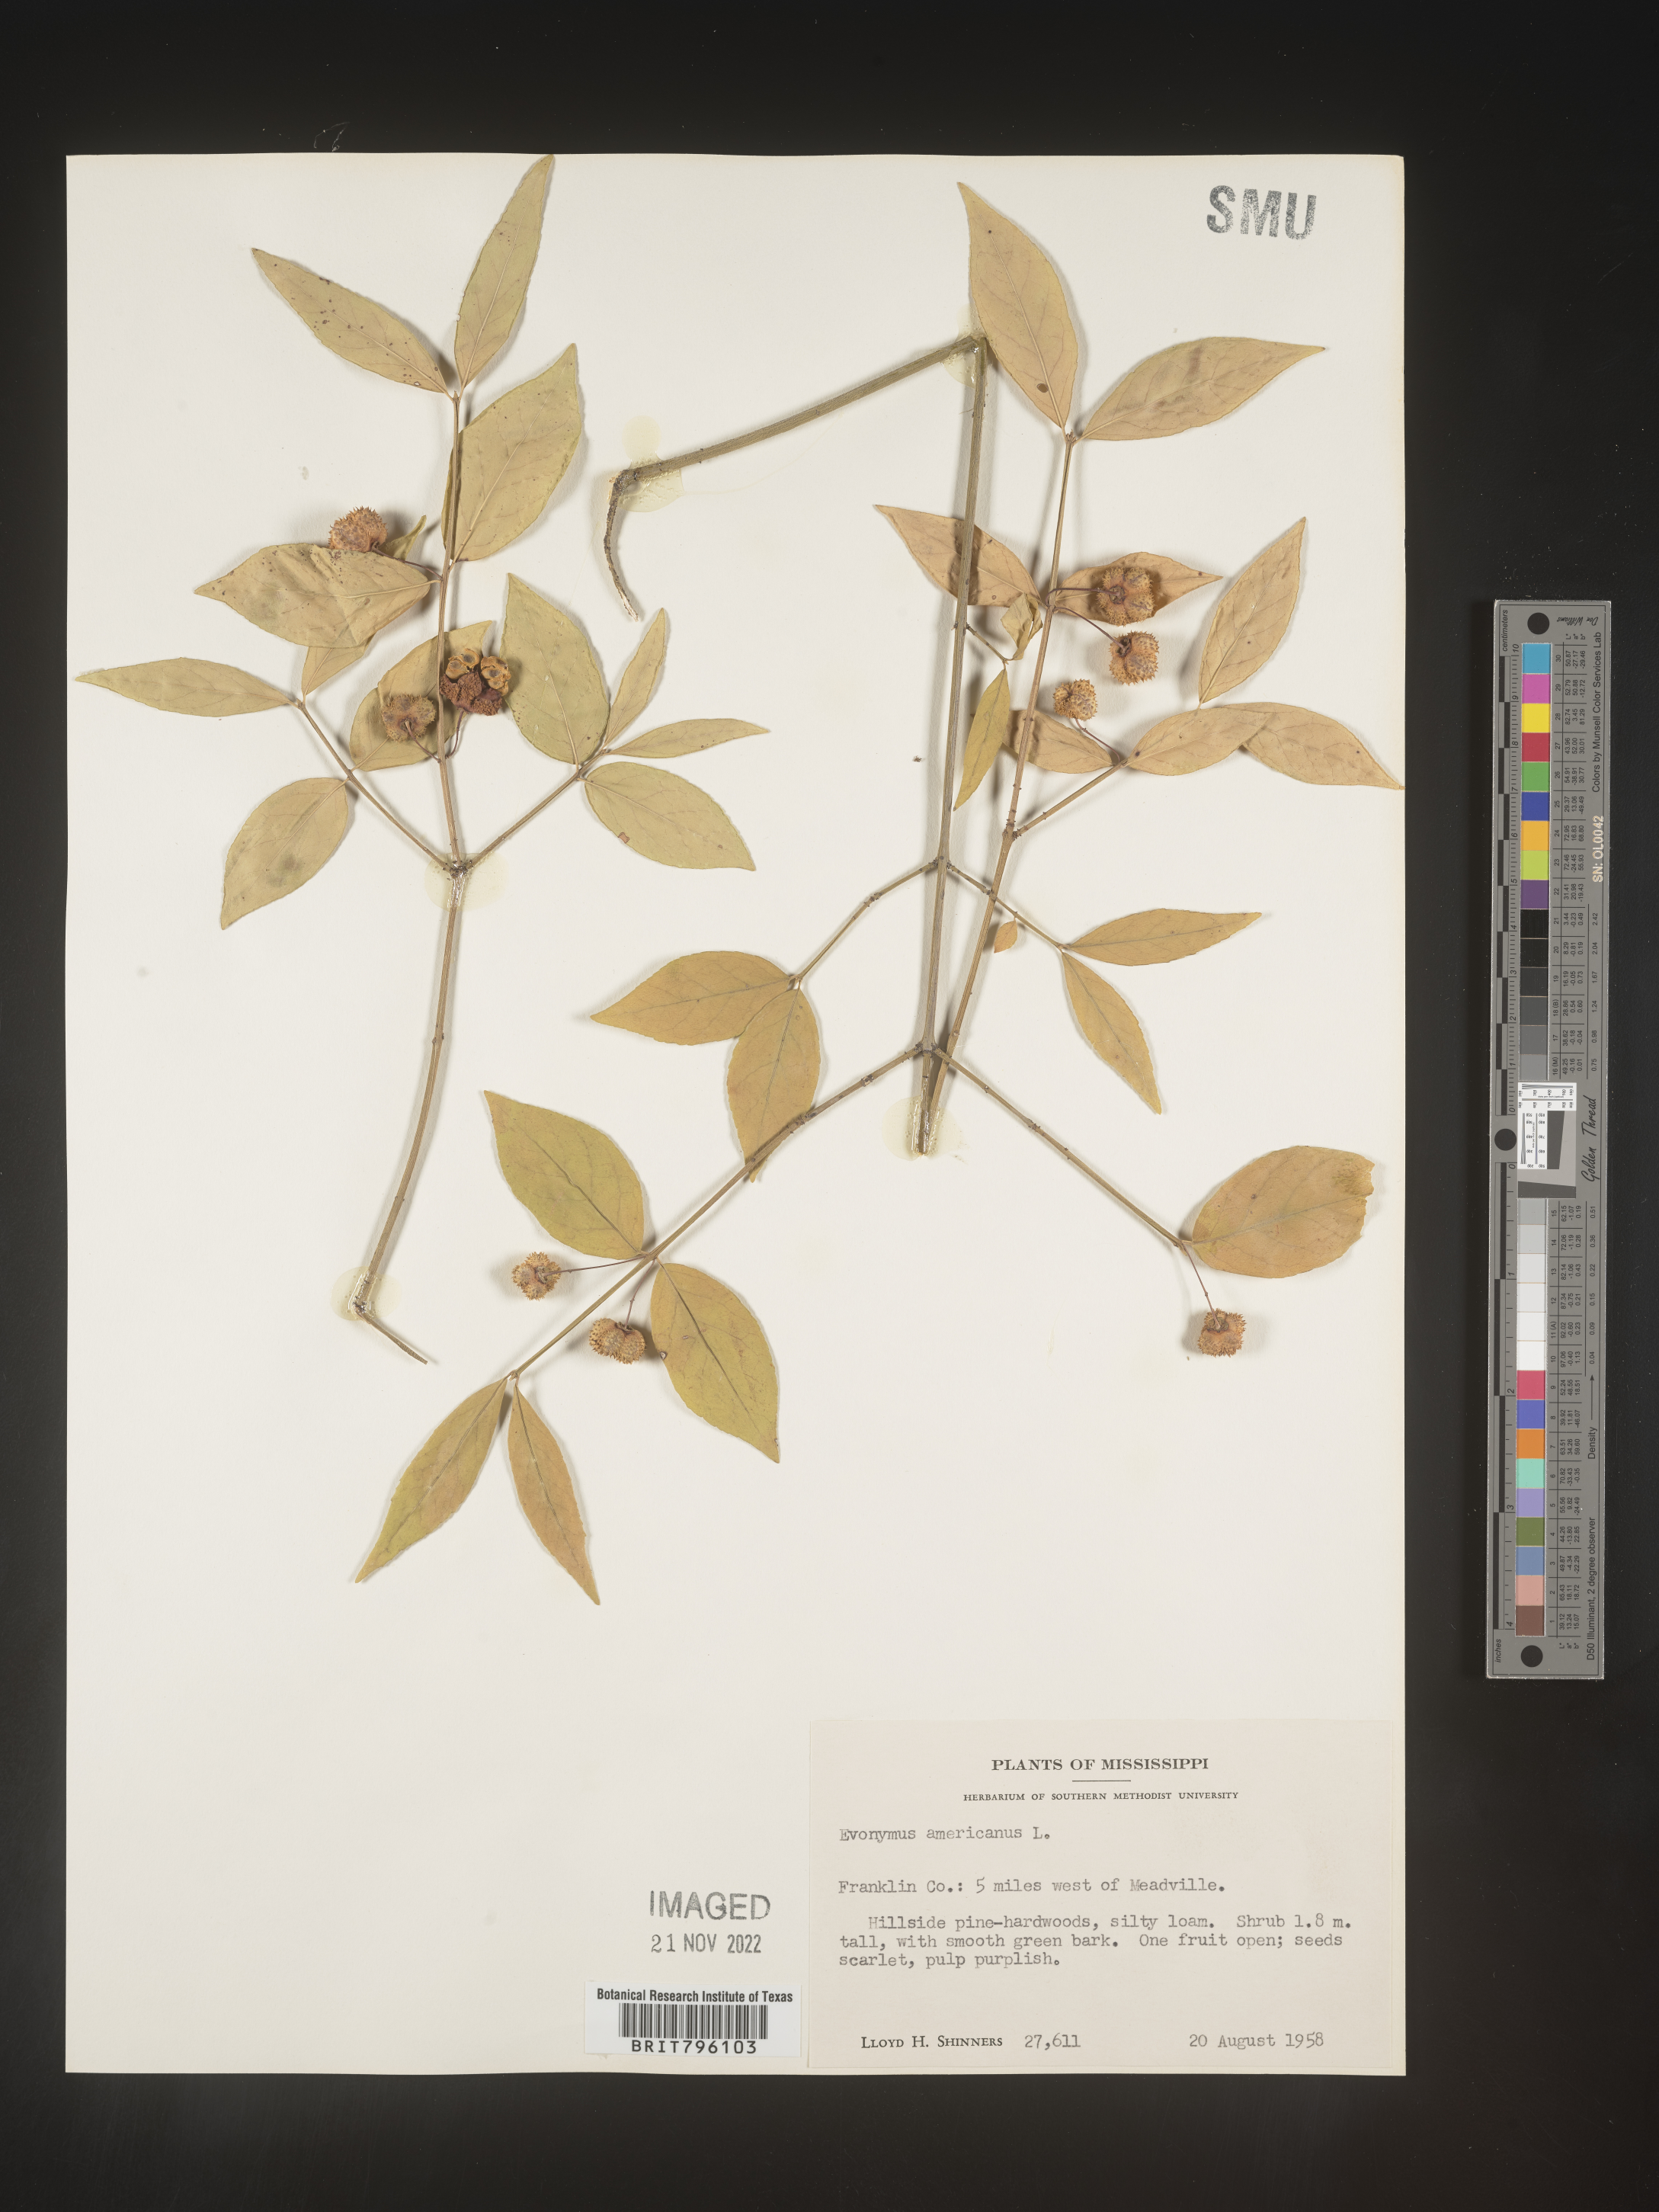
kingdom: Plantae
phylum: Tracheophyta
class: Magnoliopsida
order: Celastrales
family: Celastraceae
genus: Euonymus
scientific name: Euonymus americanus
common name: Bursting-heart
